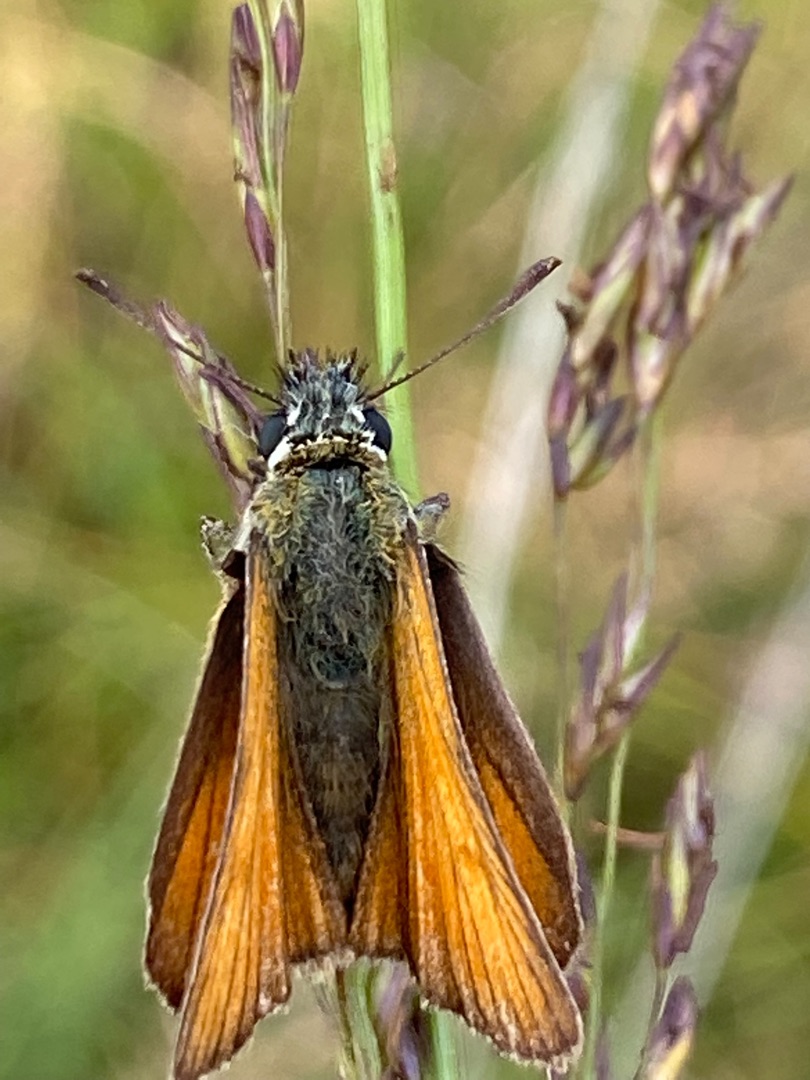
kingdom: Animalia
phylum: Arthropoda
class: Insecta
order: Lepidoptera
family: Hesperiidae
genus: Thymelicus
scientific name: Thymelicus lineola
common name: Stregbredpande
